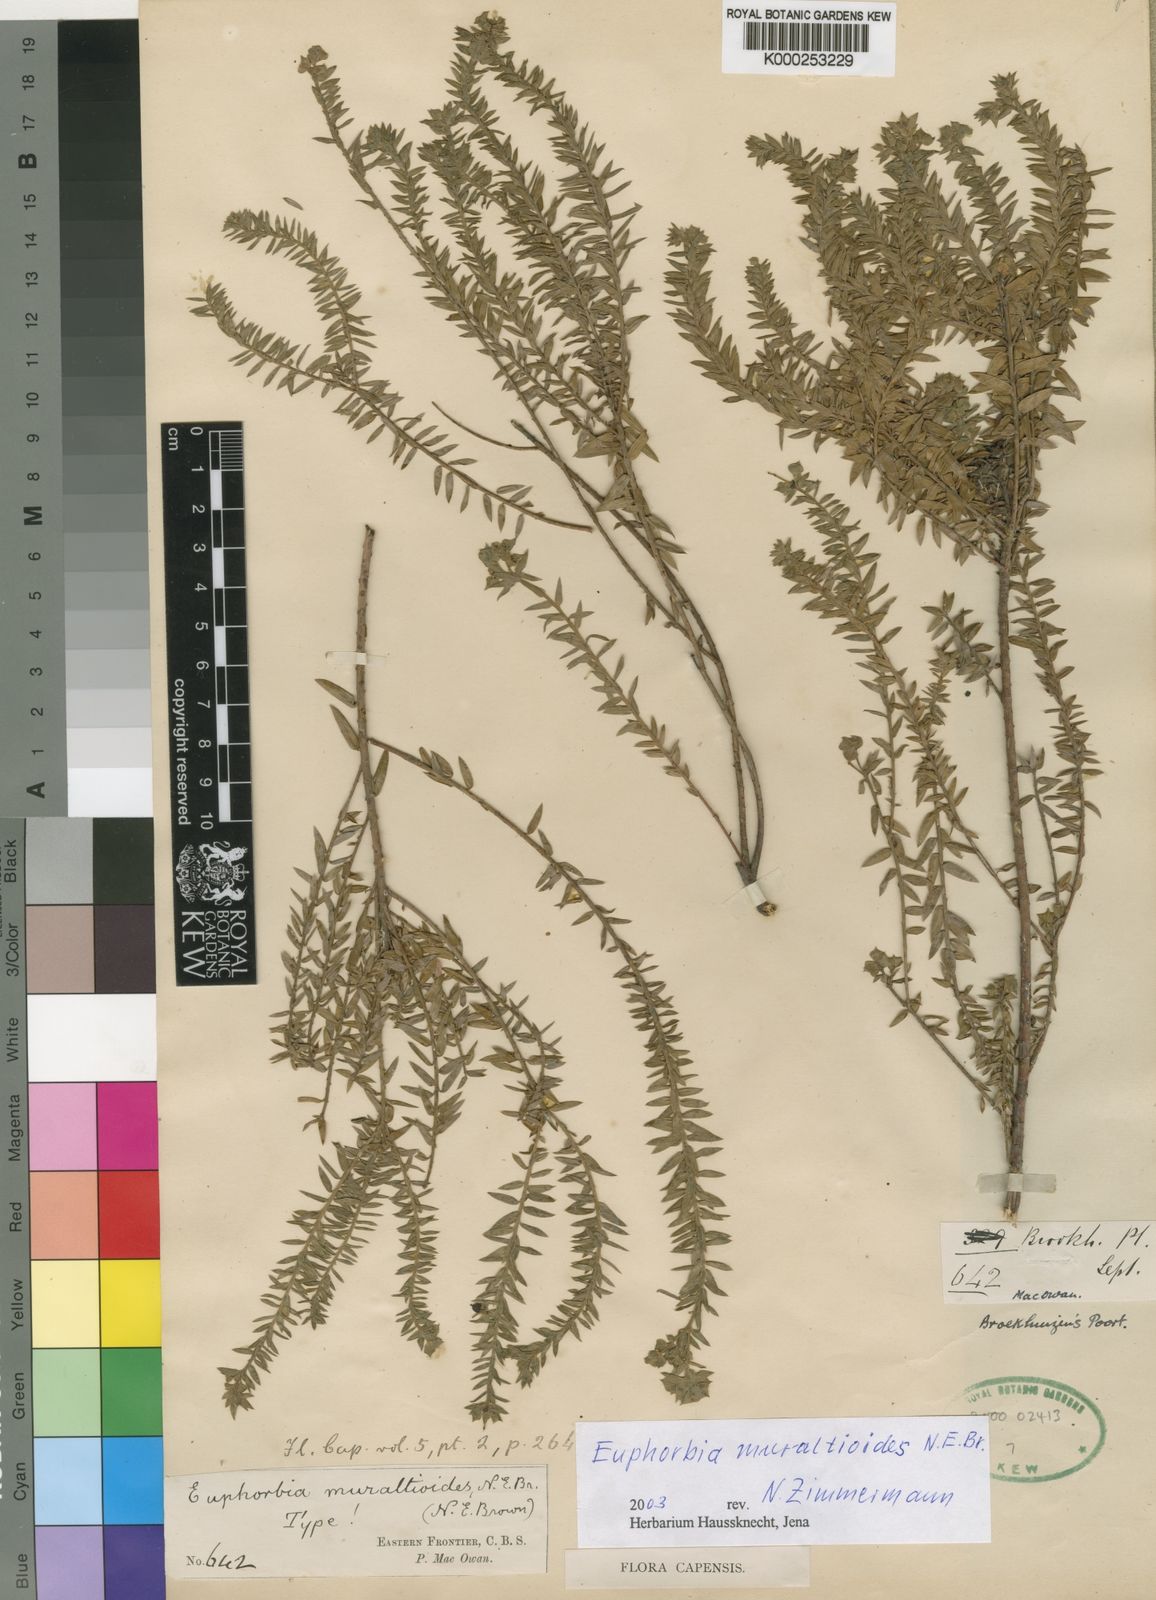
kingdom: Plantae
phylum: Tracheophyta
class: Magnoliopsida
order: Malpighiales
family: Euphorbiaceae
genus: Euphorbia
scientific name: Euphorbia muraltioides
